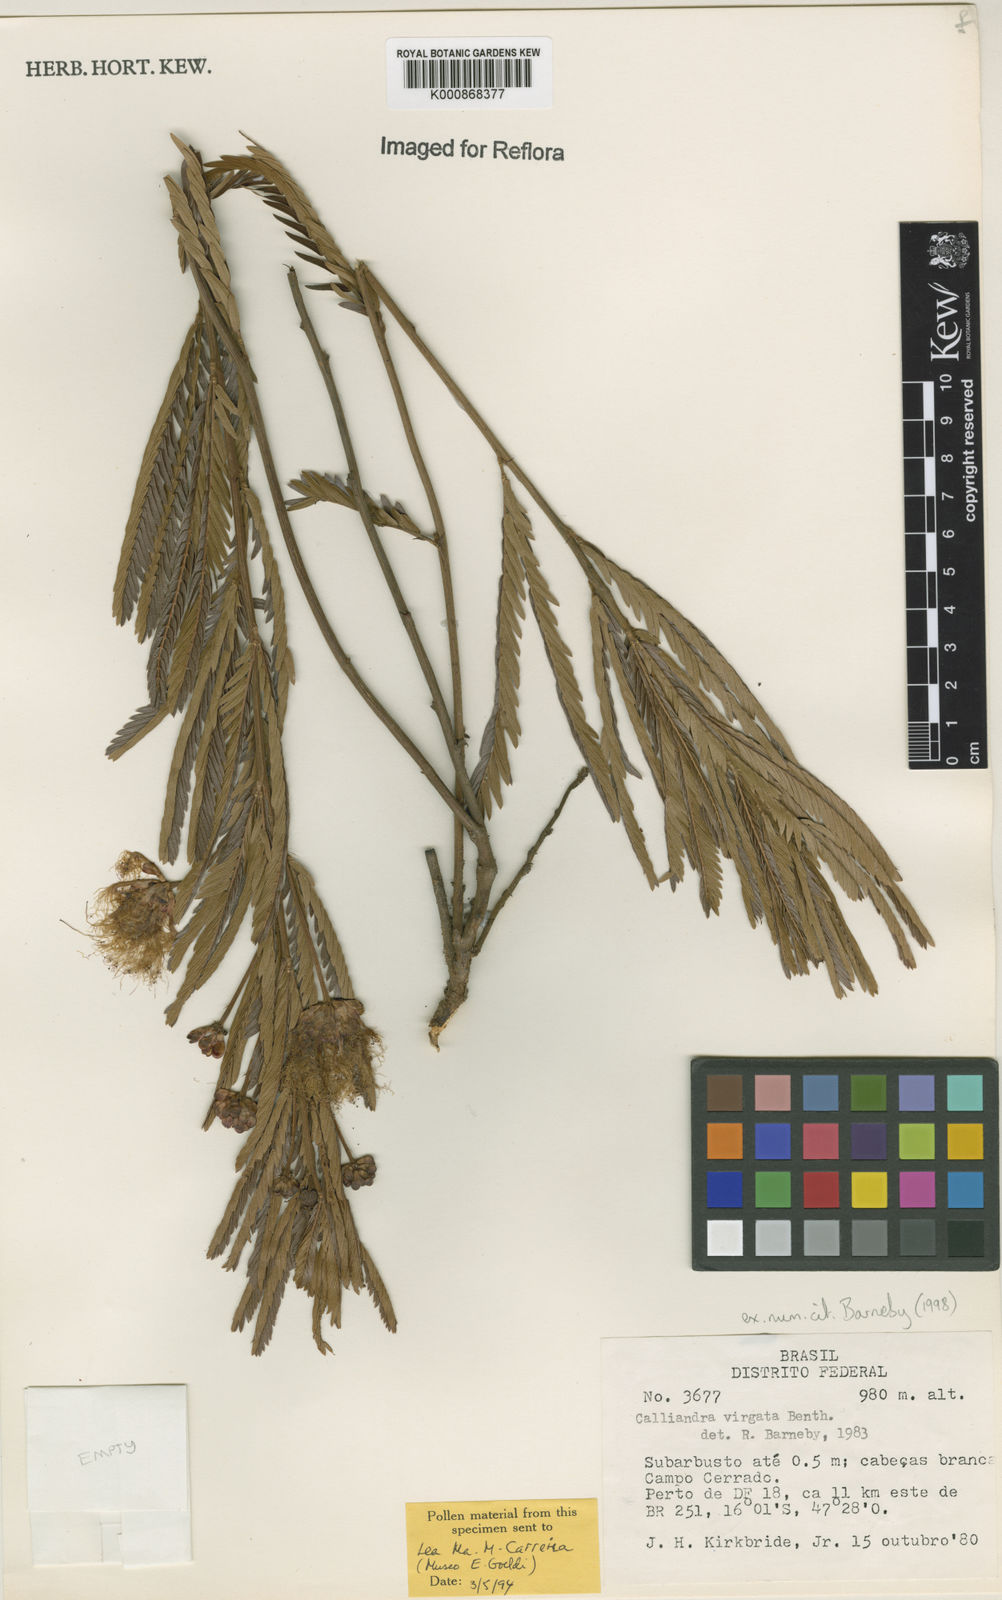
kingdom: Plantae
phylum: Tracheophyta
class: Magnoliopsida
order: Fabales
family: Fabaceae
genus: Calliandra
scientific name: Calliandra virgata
